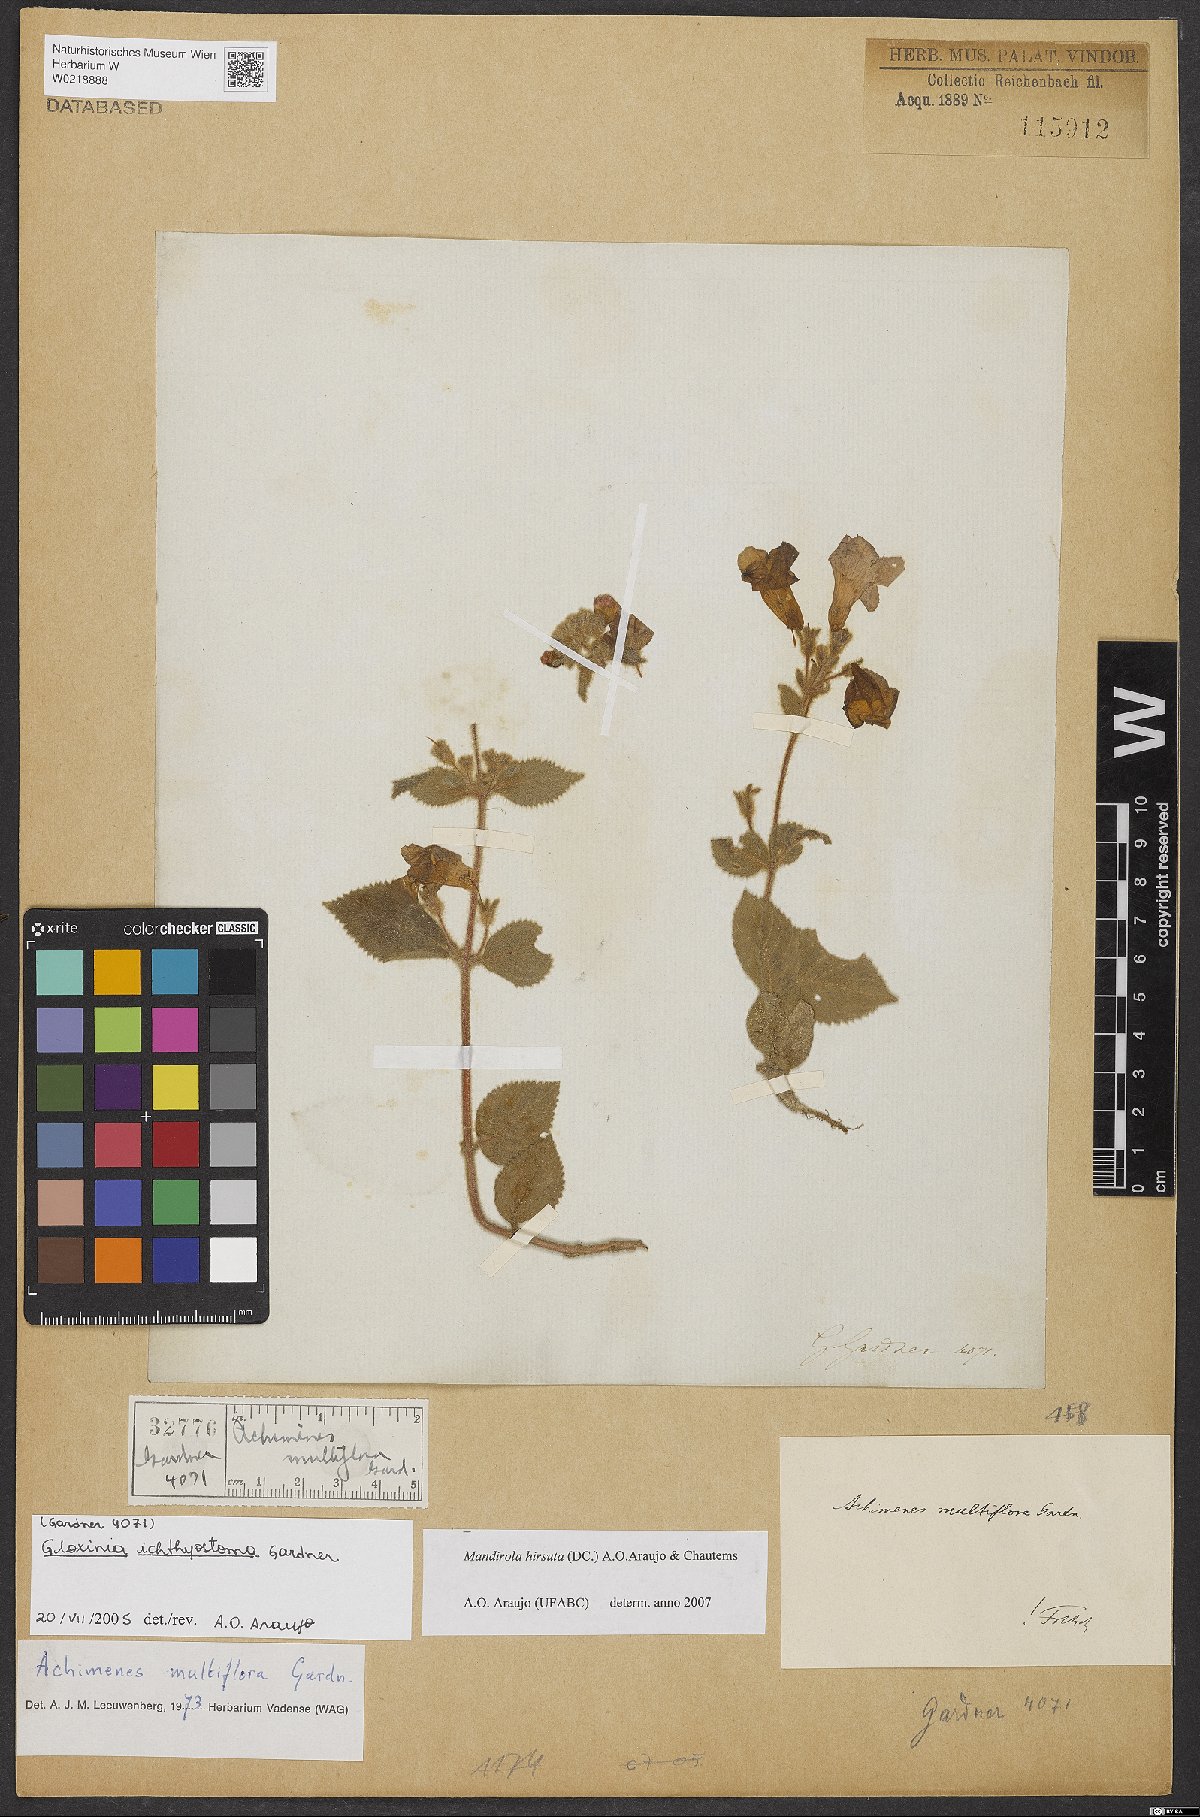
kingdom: Plantae
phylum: Tracheophyta
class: Magnoliopsida
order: Lamiales
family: Gesneriaceae
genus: Mandirola
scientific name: Mandirola hirsuta
